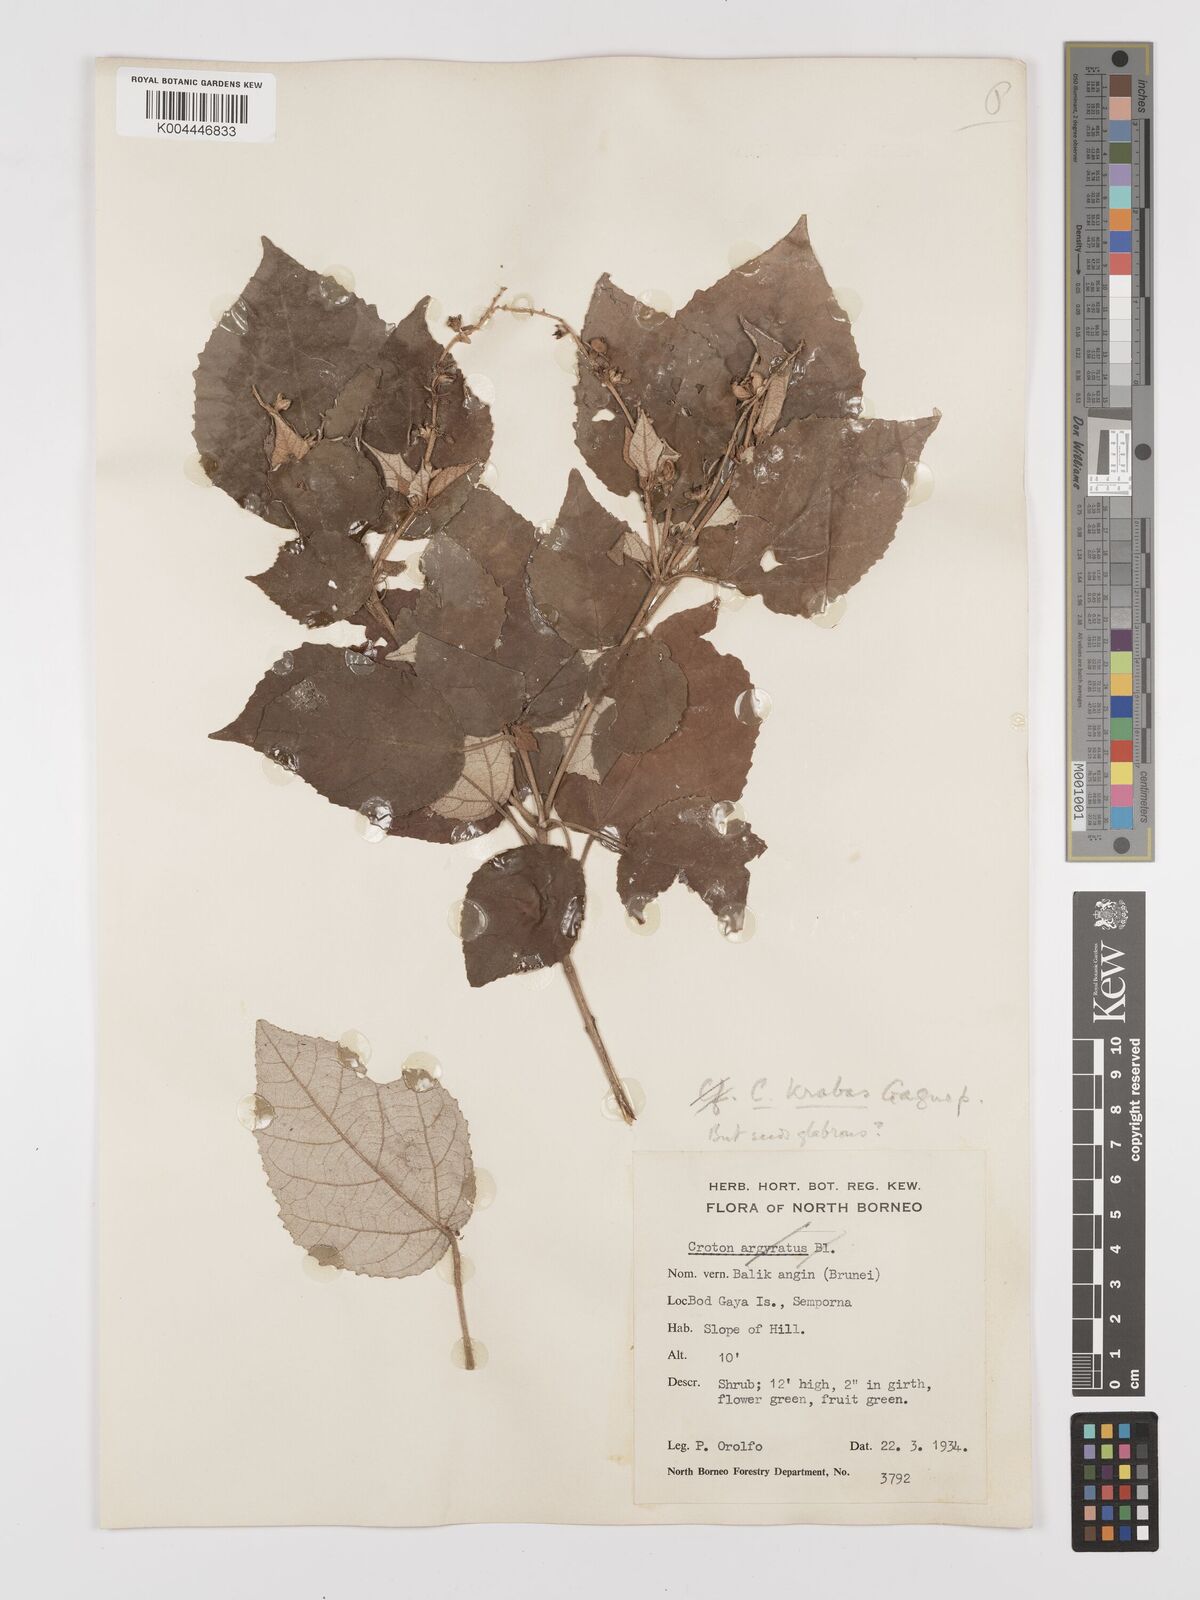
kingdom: Plantae
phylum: Tracheophyta
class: Magnoliopsida
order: Malpighiales
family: Euphorbiaceae
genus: Croton
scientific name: Croton krabas
